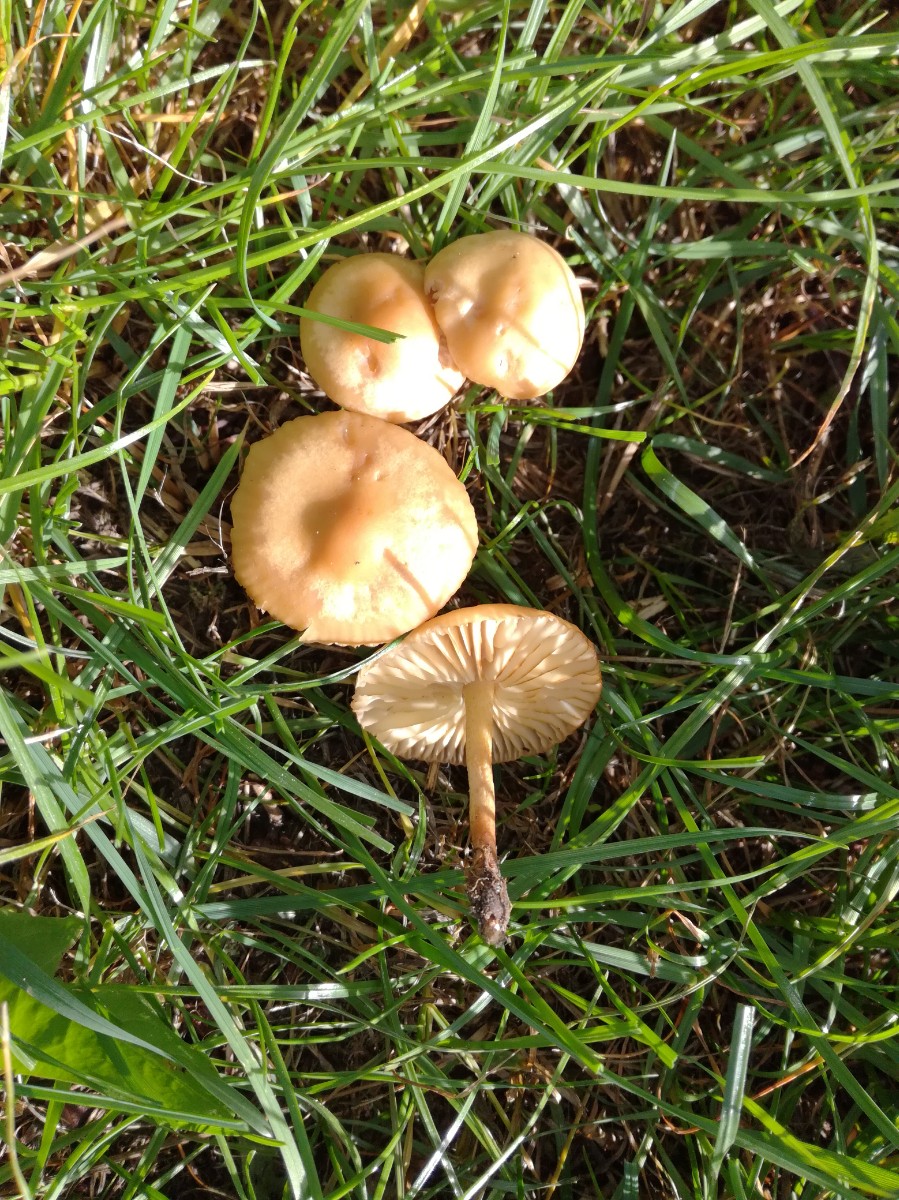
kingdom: Fungi
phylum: Basidiomycota
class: Agaricomycetes
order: Agaricales
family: Marasmiaceae
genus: Marasmius
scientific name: Marasmius oreades
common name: elledans-bruskhat
